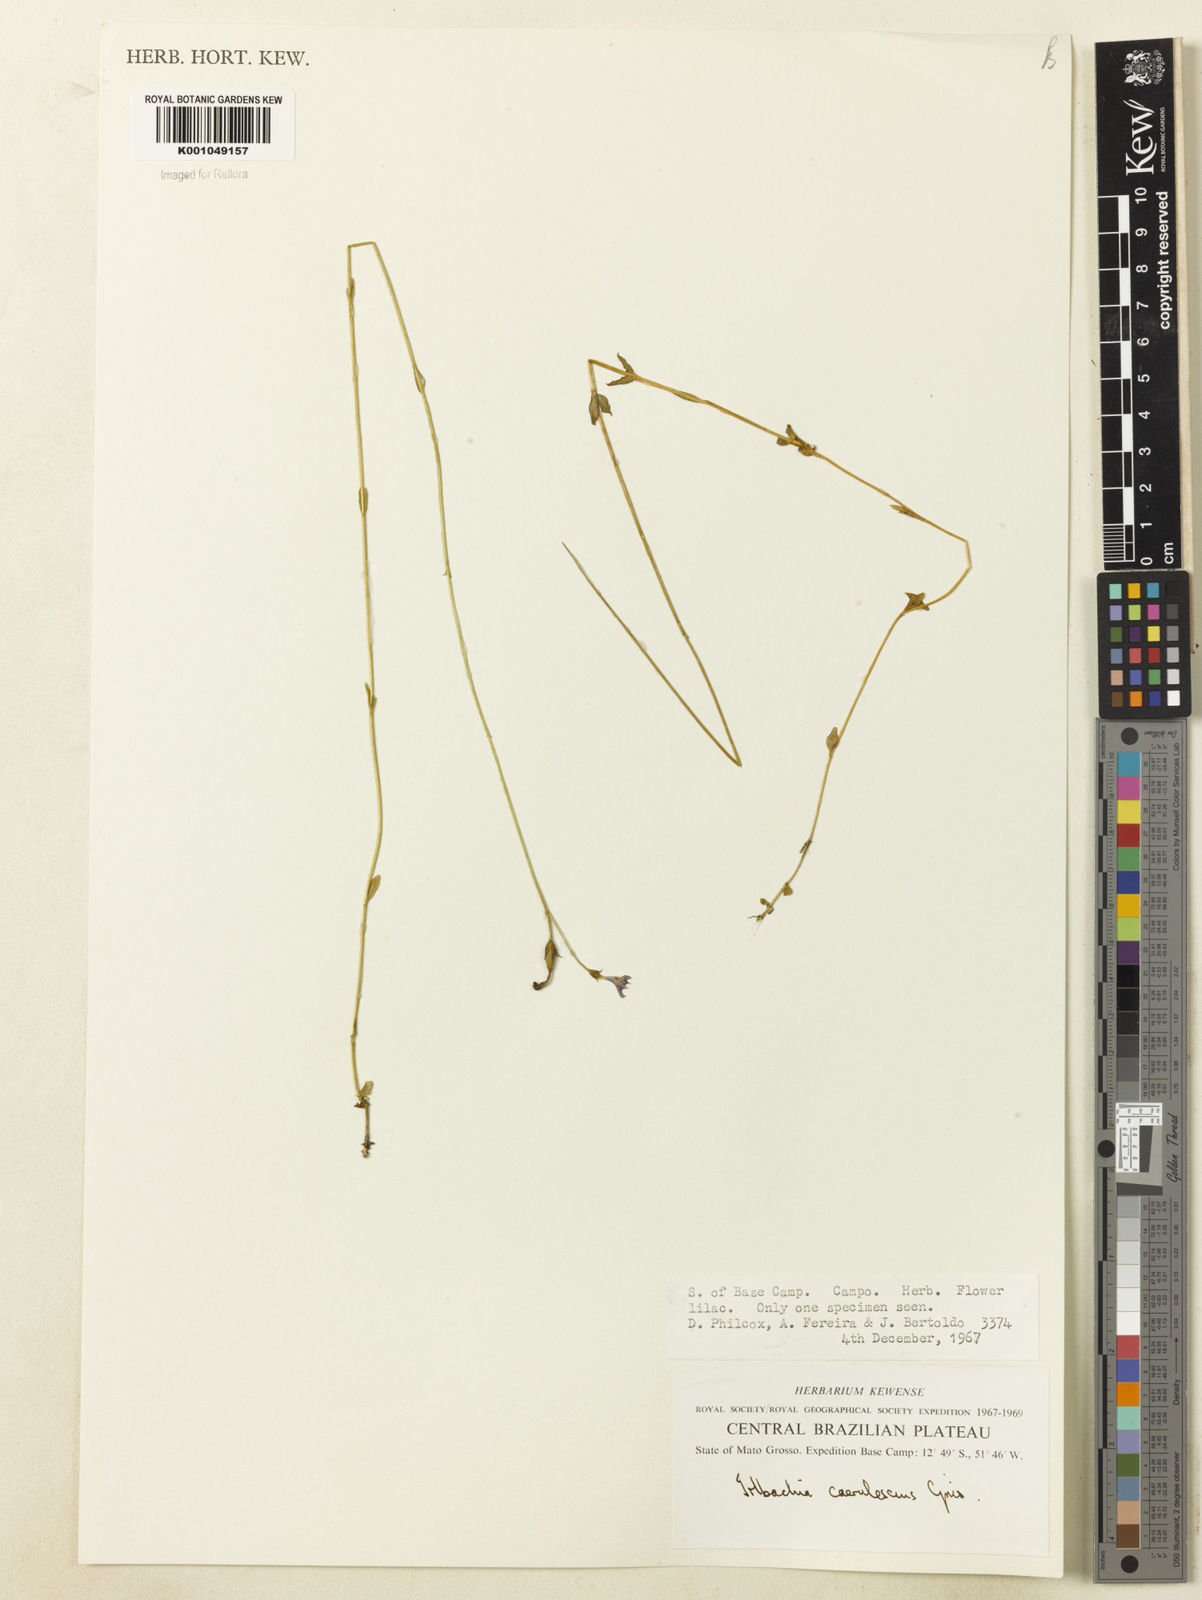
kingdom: Plantae
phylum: Tracheophyta
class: Magnoliopsida
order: Gentianales
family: Gentianaceae
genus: Tetrapollinia
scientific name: Tetrapollinia caerulescens
